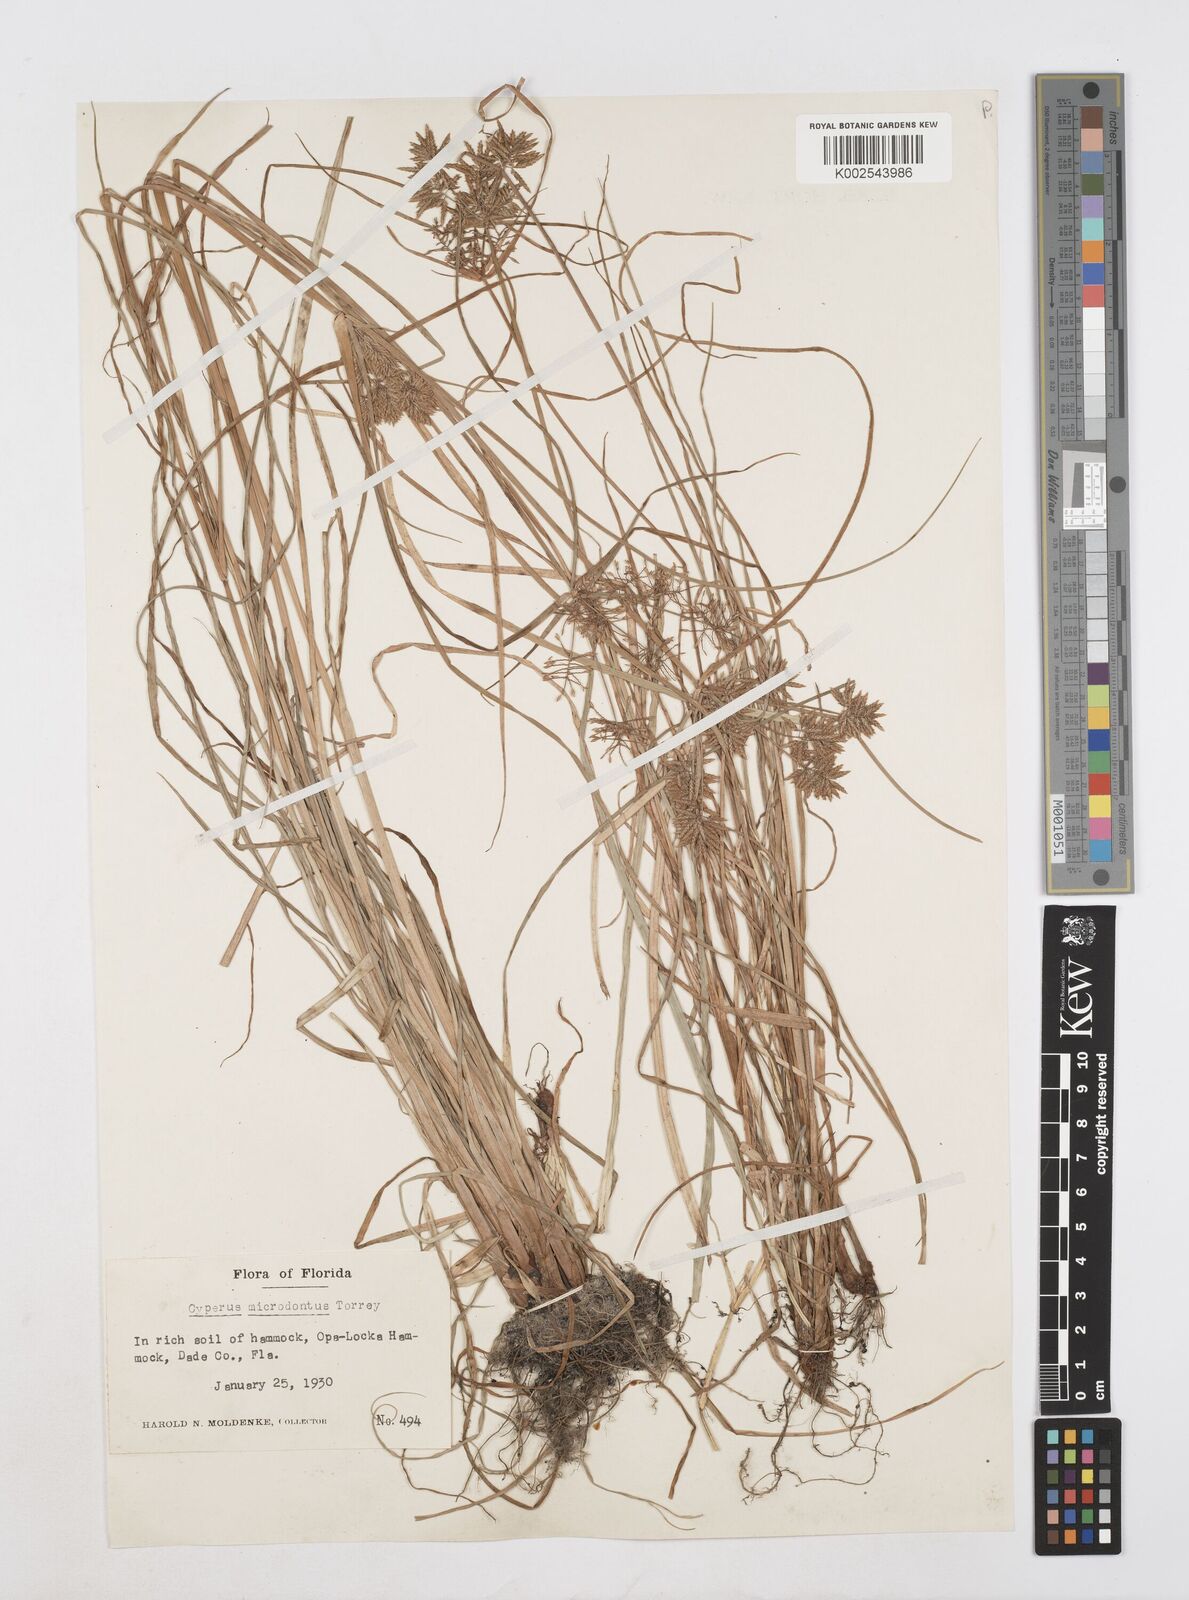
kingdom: Plantae
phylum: Tracheophyta
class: Liliopsida
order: Poales
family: Cyperaceae
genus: Cyperus
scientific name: Cyperus polystachyos
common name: Bunchy flat sedge
